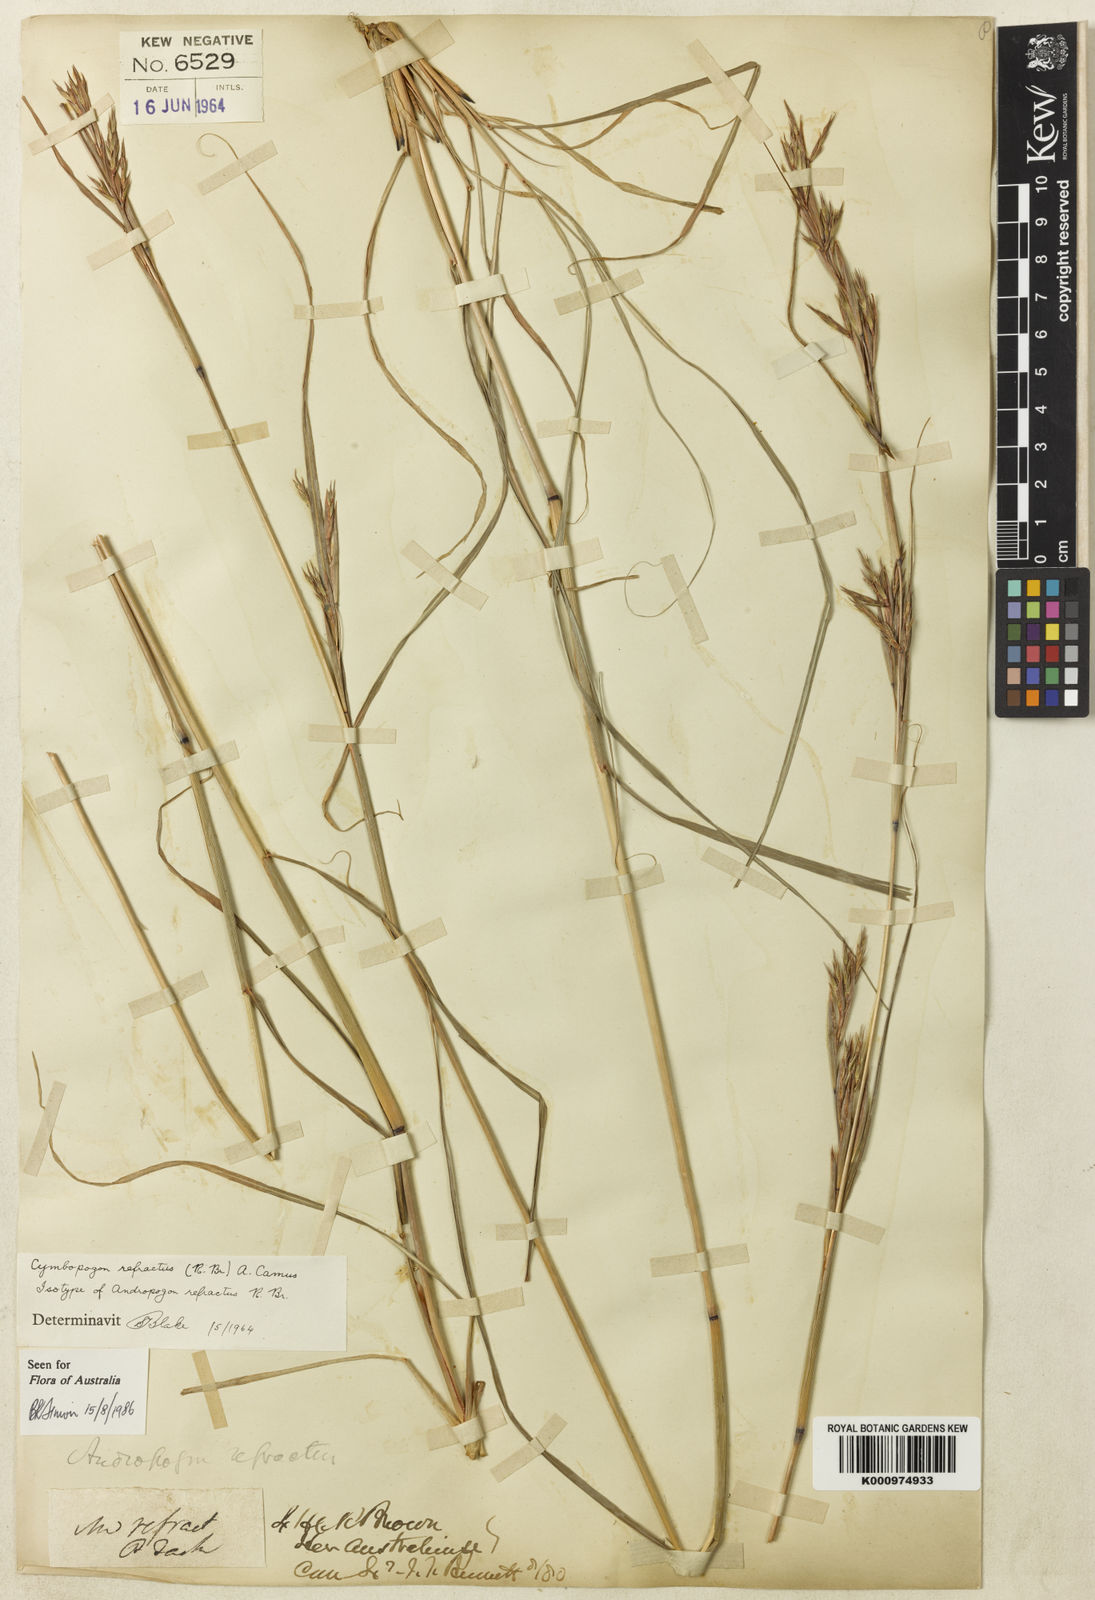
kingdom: Plantae
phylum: Tracheophyta
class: Liliopsida
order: Poales
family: Poaceae
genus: Cymbopogon
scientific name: Cymbopogon refractus
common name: Barbwire grass
